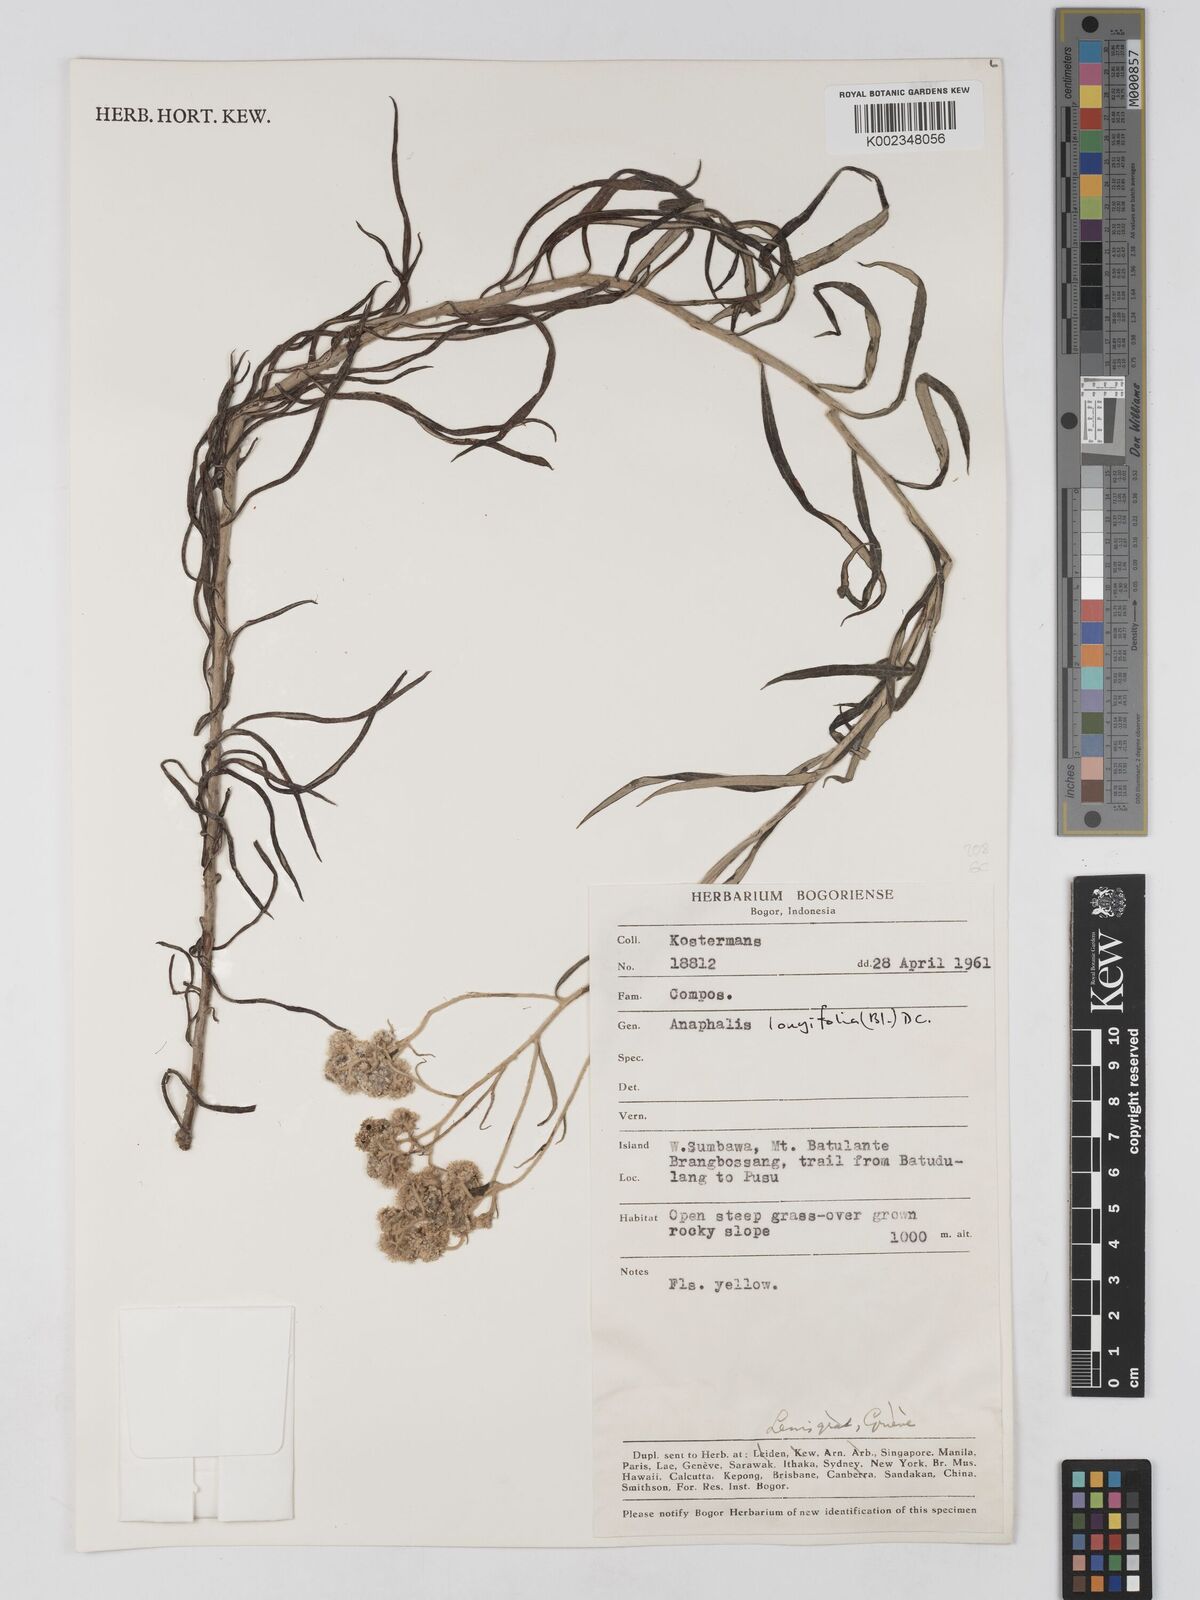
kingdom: Plantae
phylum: Tracheophyta
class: Magnoliopsida
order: Asterales
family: Asteraceae
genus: Anaphalis
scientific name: Anaphalis longifolia
